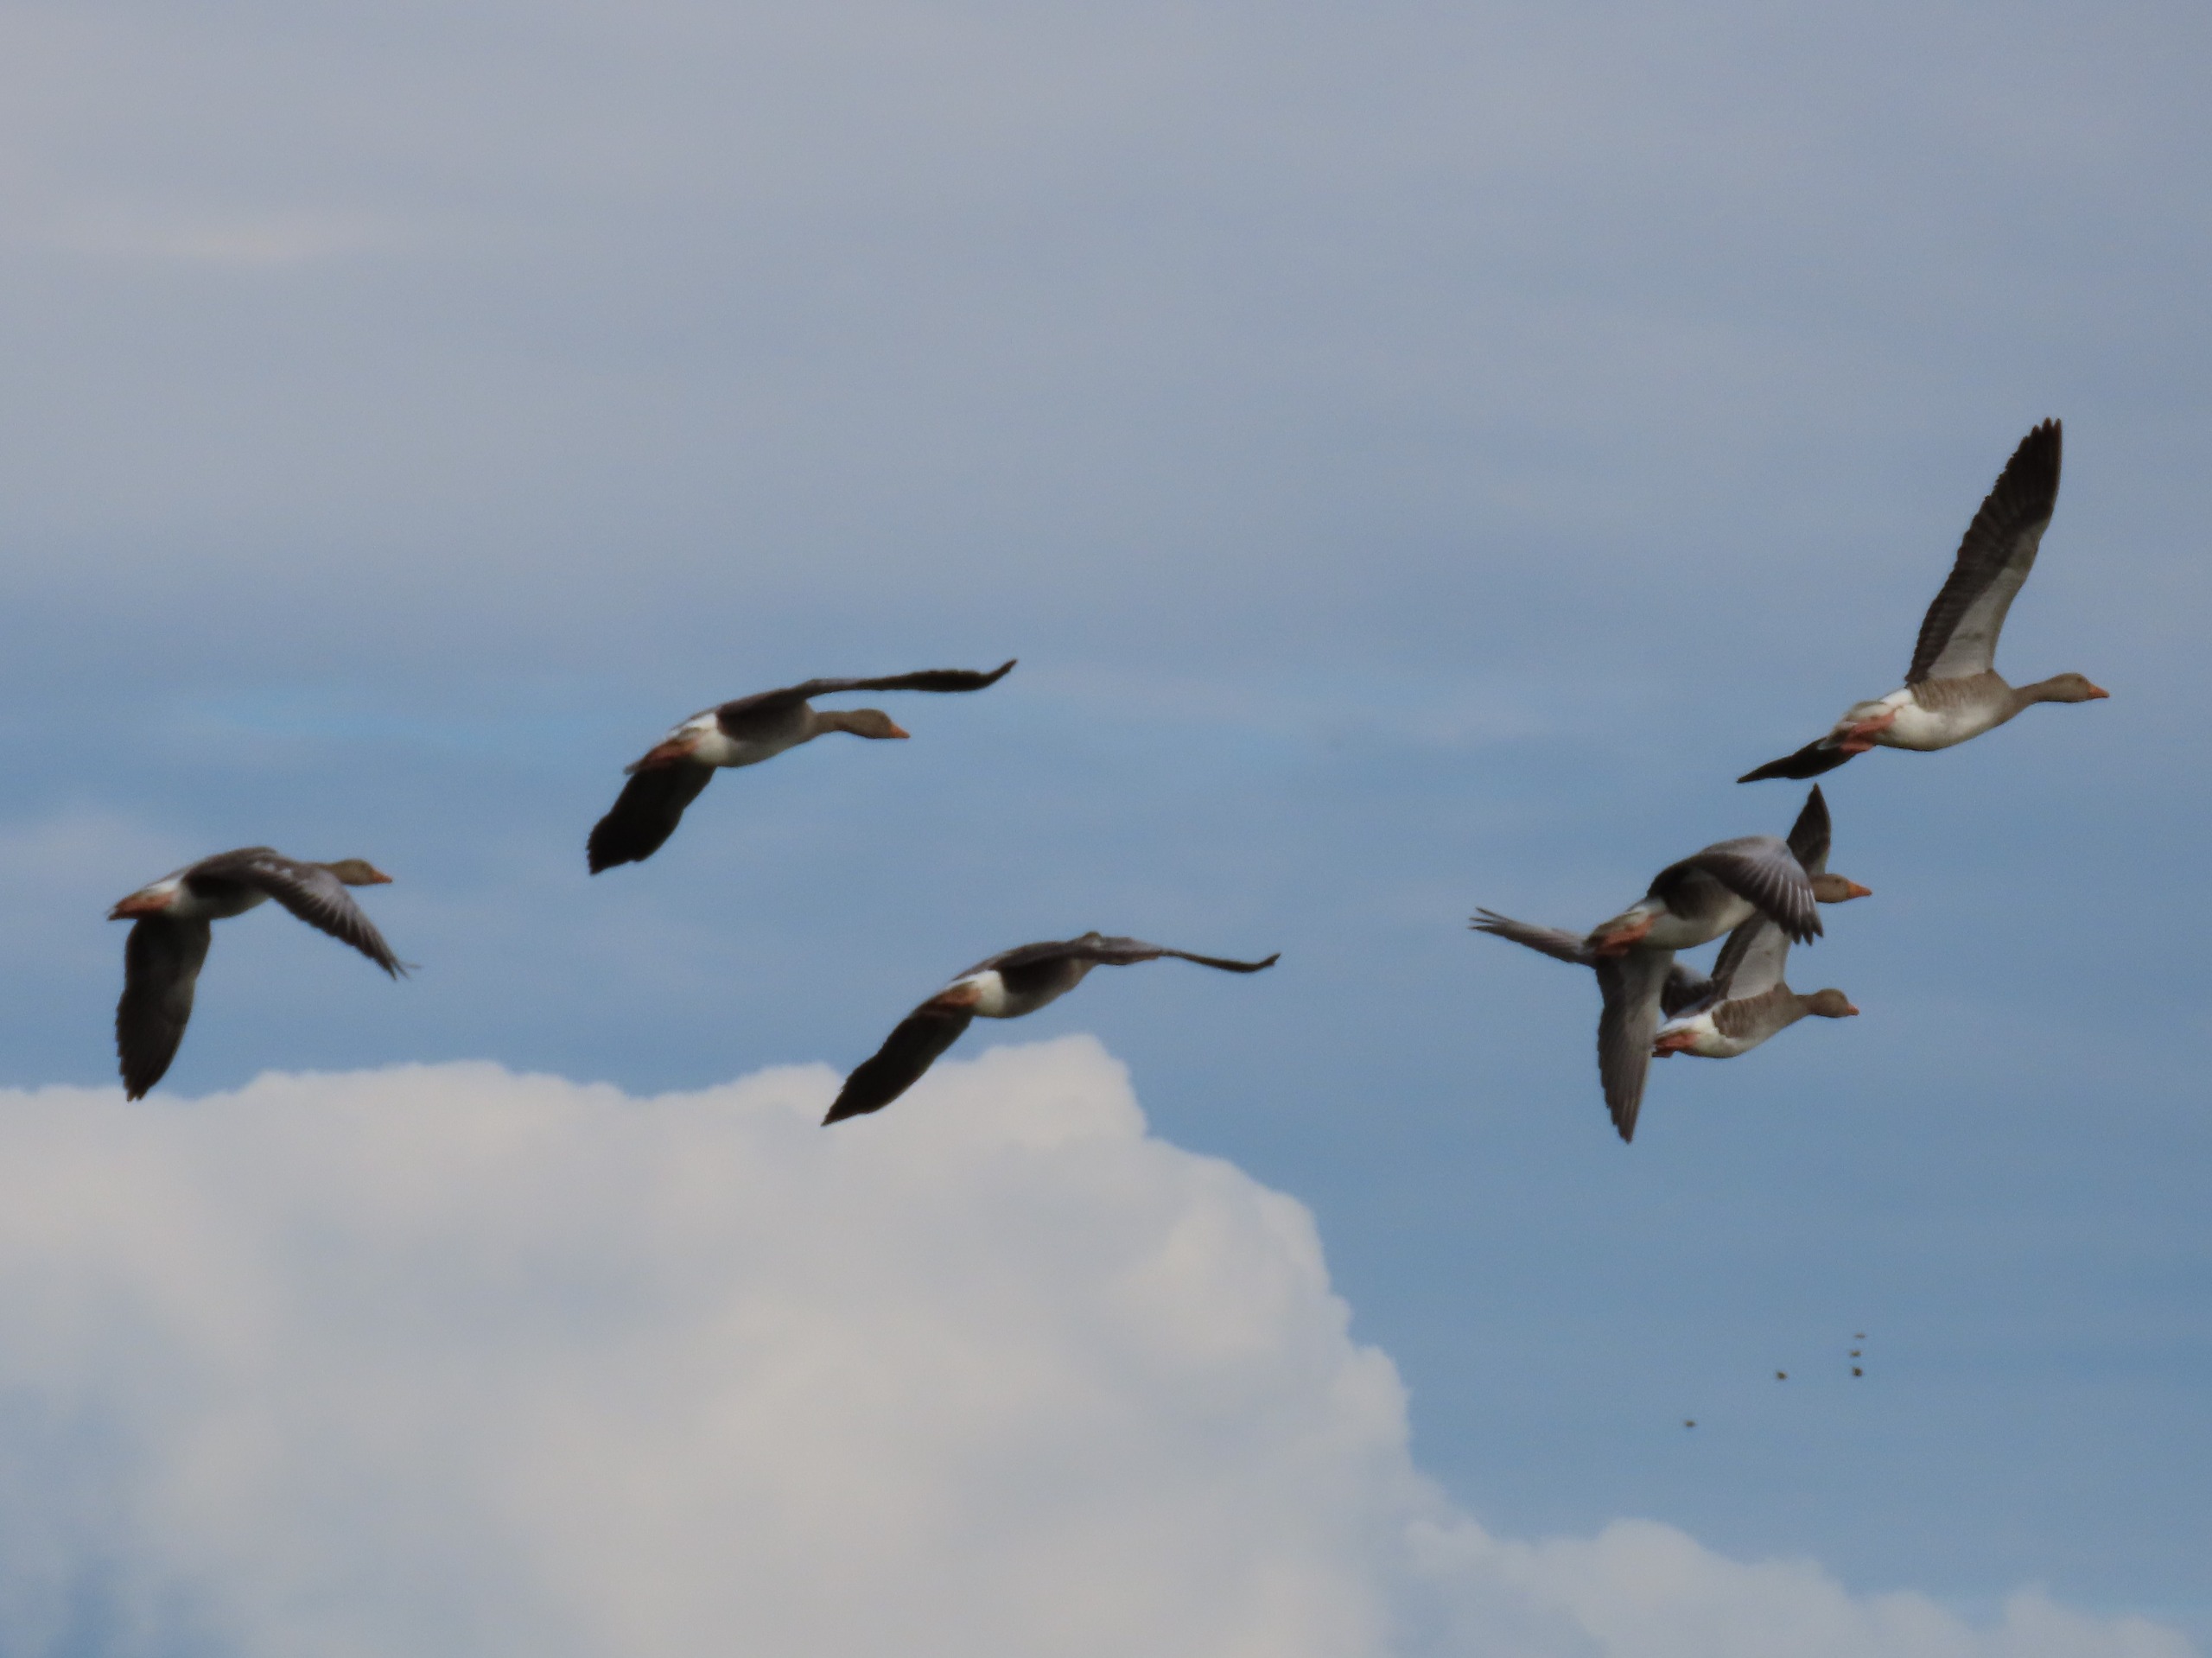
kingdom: Animalia
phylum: Chordata
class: Aves
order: Anseriformes
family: Anatidae
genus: Anser
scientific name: Anser anser
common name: Grågås
